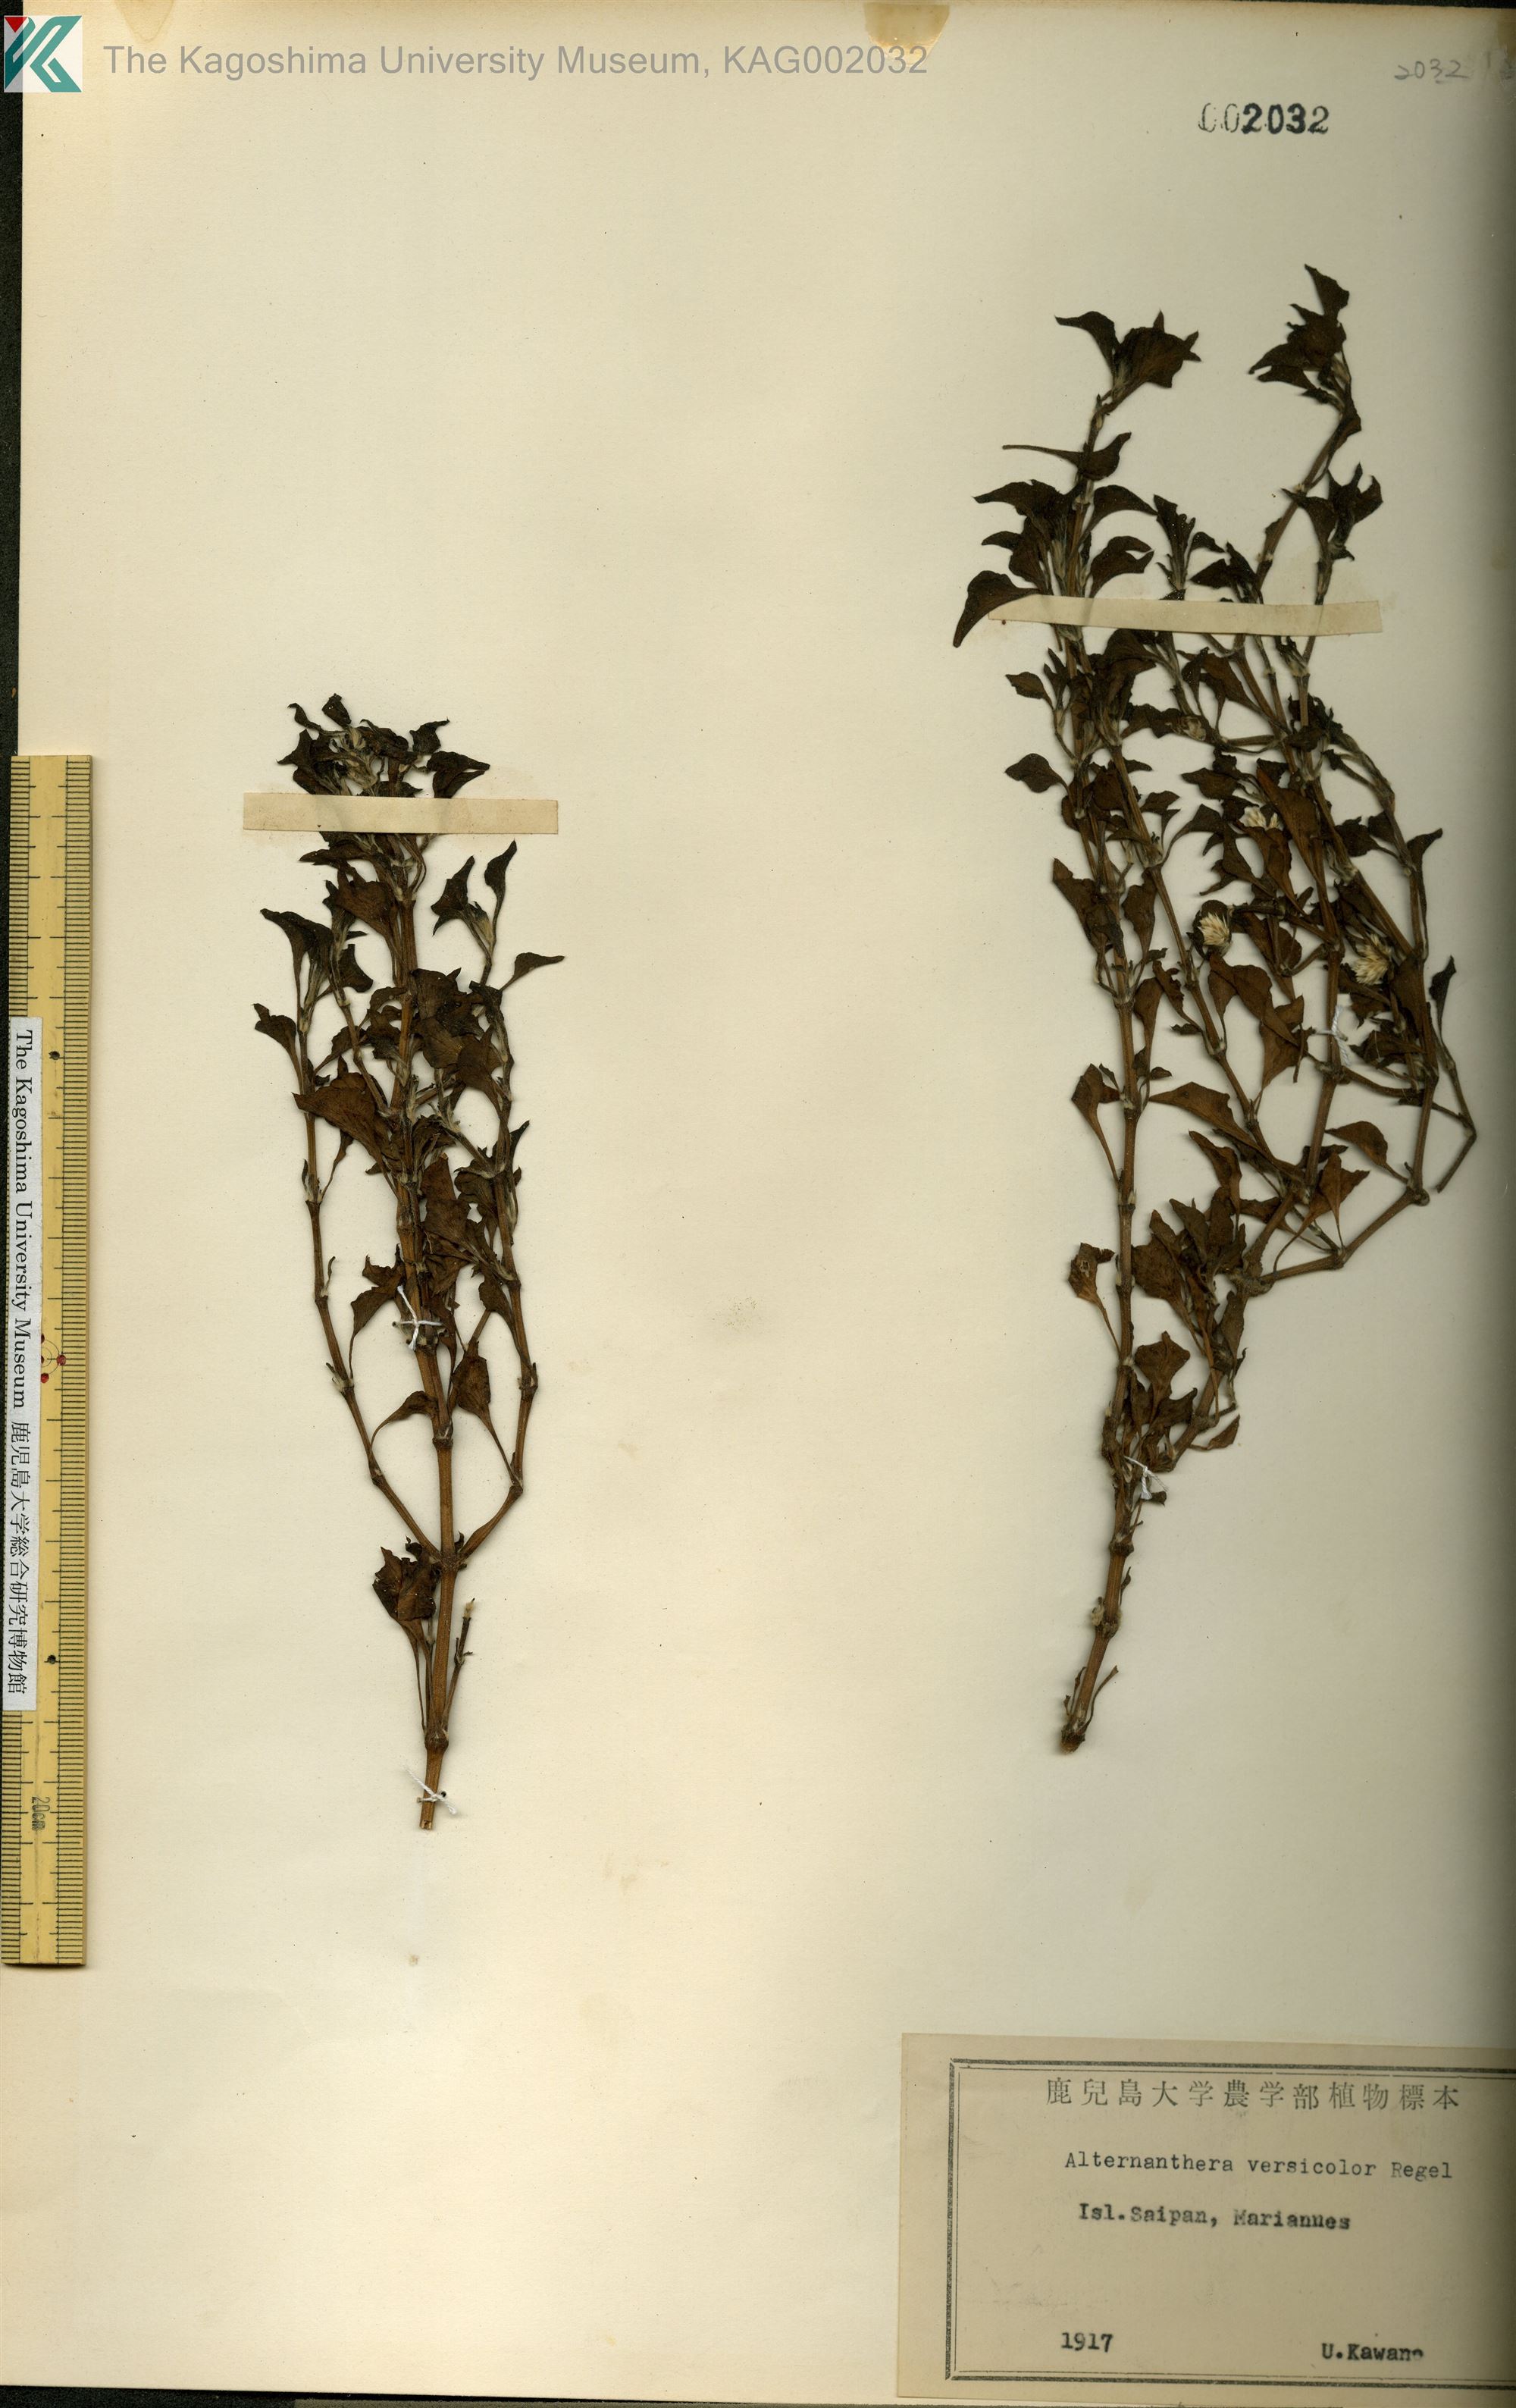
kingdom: Plantae
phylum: Tracheophyta
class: Magnoliopsida
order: Caryophyllales
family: Amaranthaceae
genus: Alternanthera
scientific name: Alternanthera pulchella
